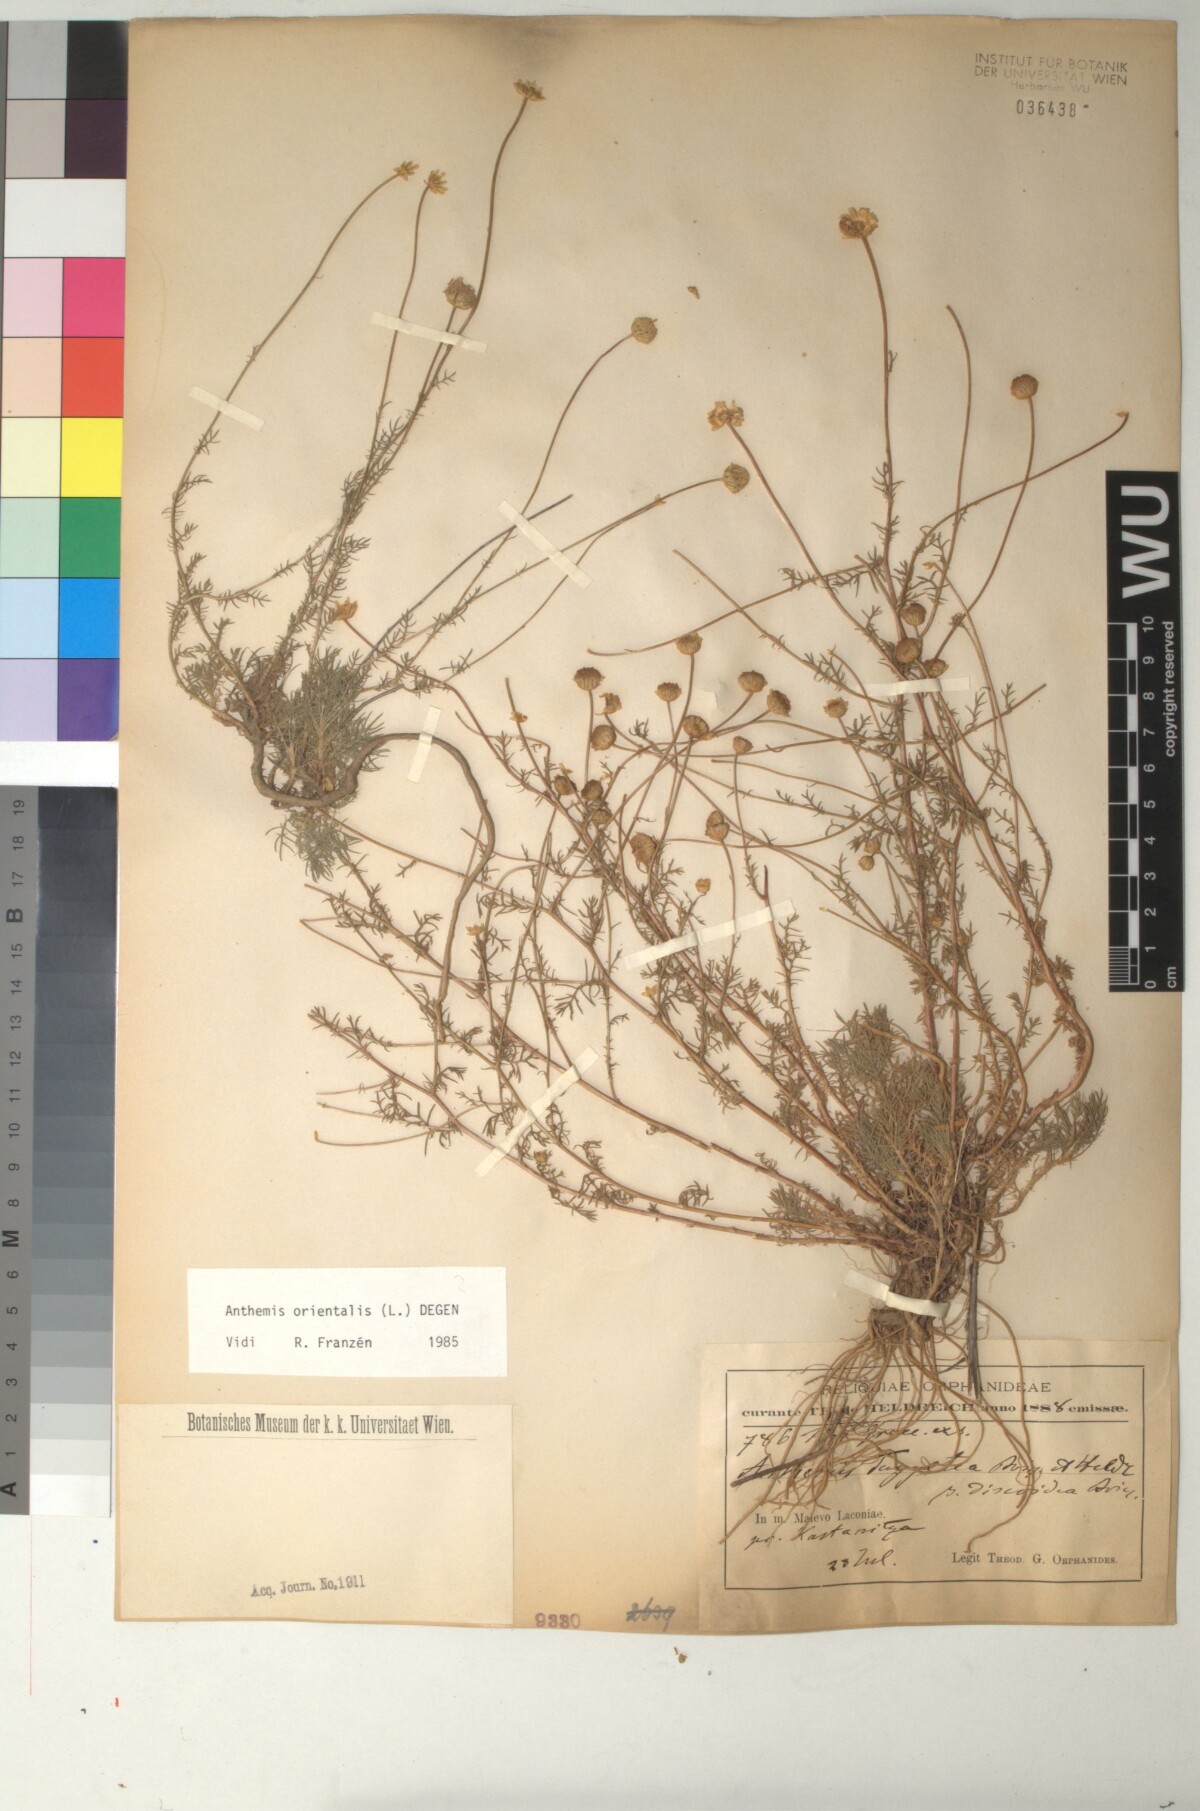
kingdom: Plantae
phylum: Tracheophyta
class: Magnoliopsida
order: Asterales
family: Asteraceae
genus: Anthemis
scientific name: Anthemis orientalis
